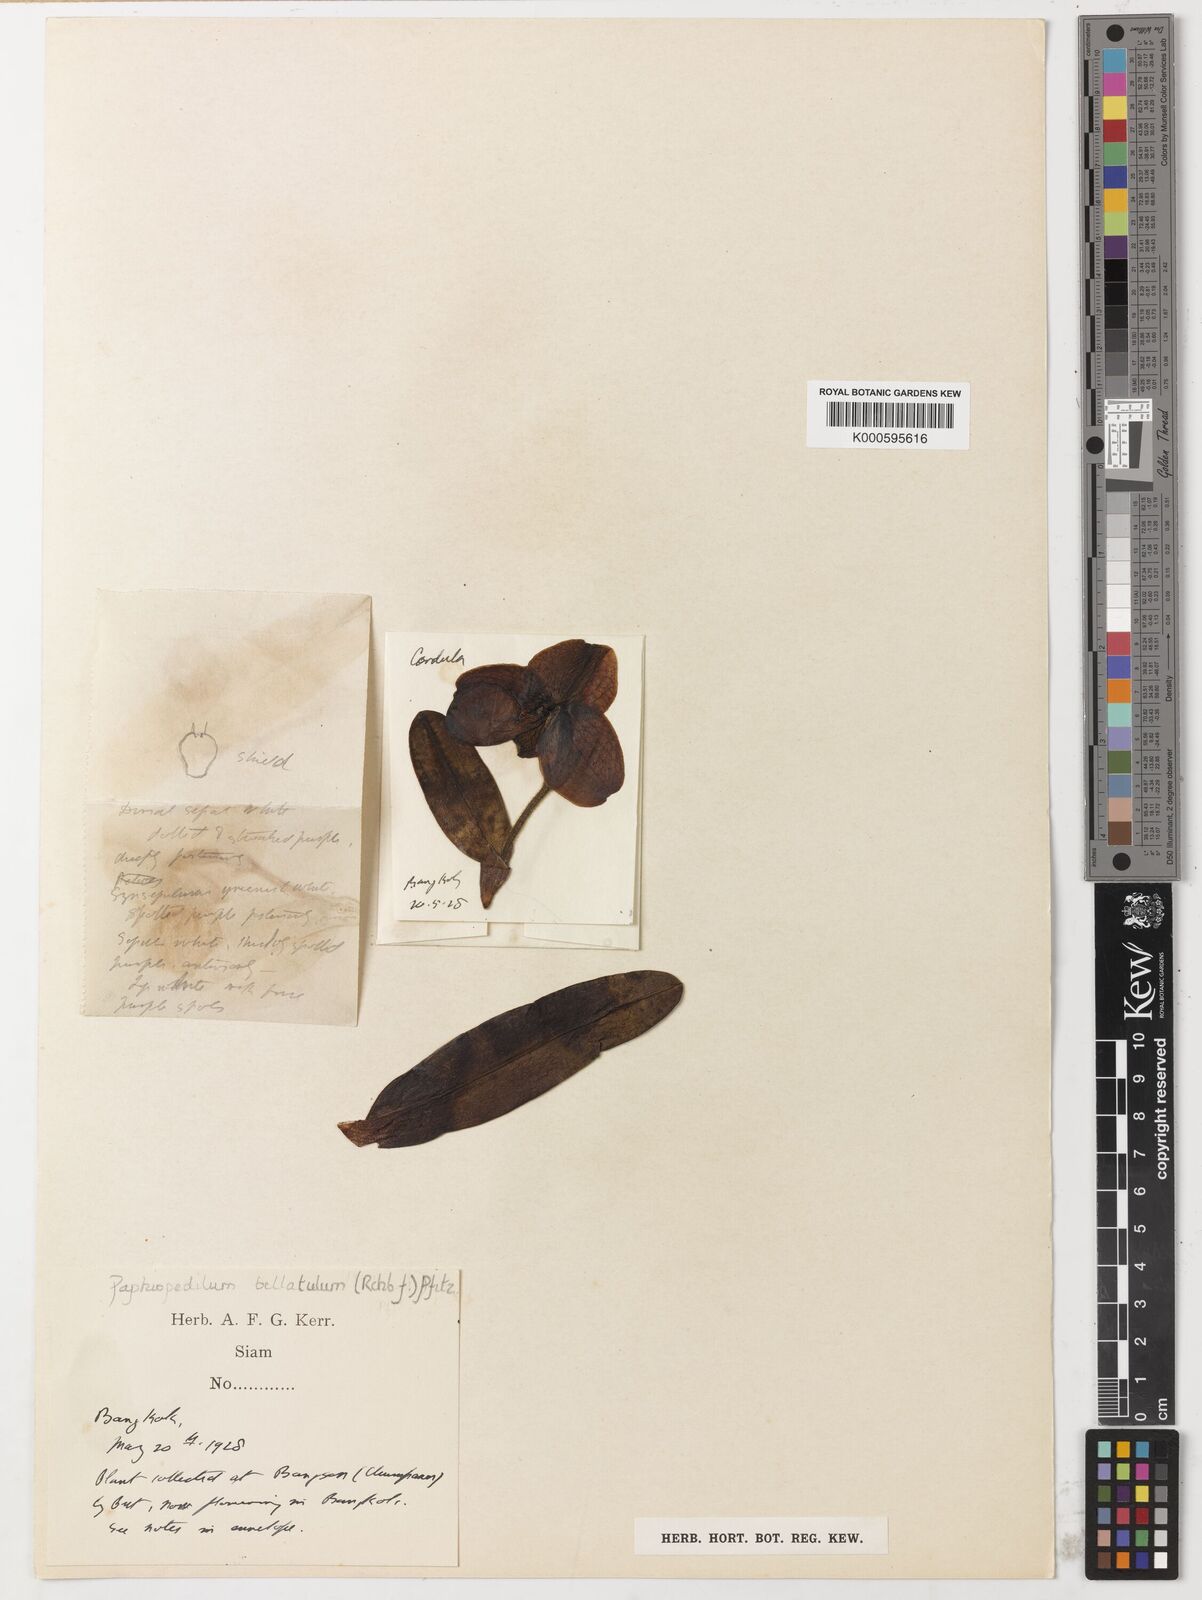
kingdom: Plantae
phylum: Tracheophyta
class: Liliopsida
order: Asparagales
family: Orchidaceae
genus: Paphiopedilum
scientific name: Paphiopedilum godefroyae
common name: Godefroy's paphiopedilum
